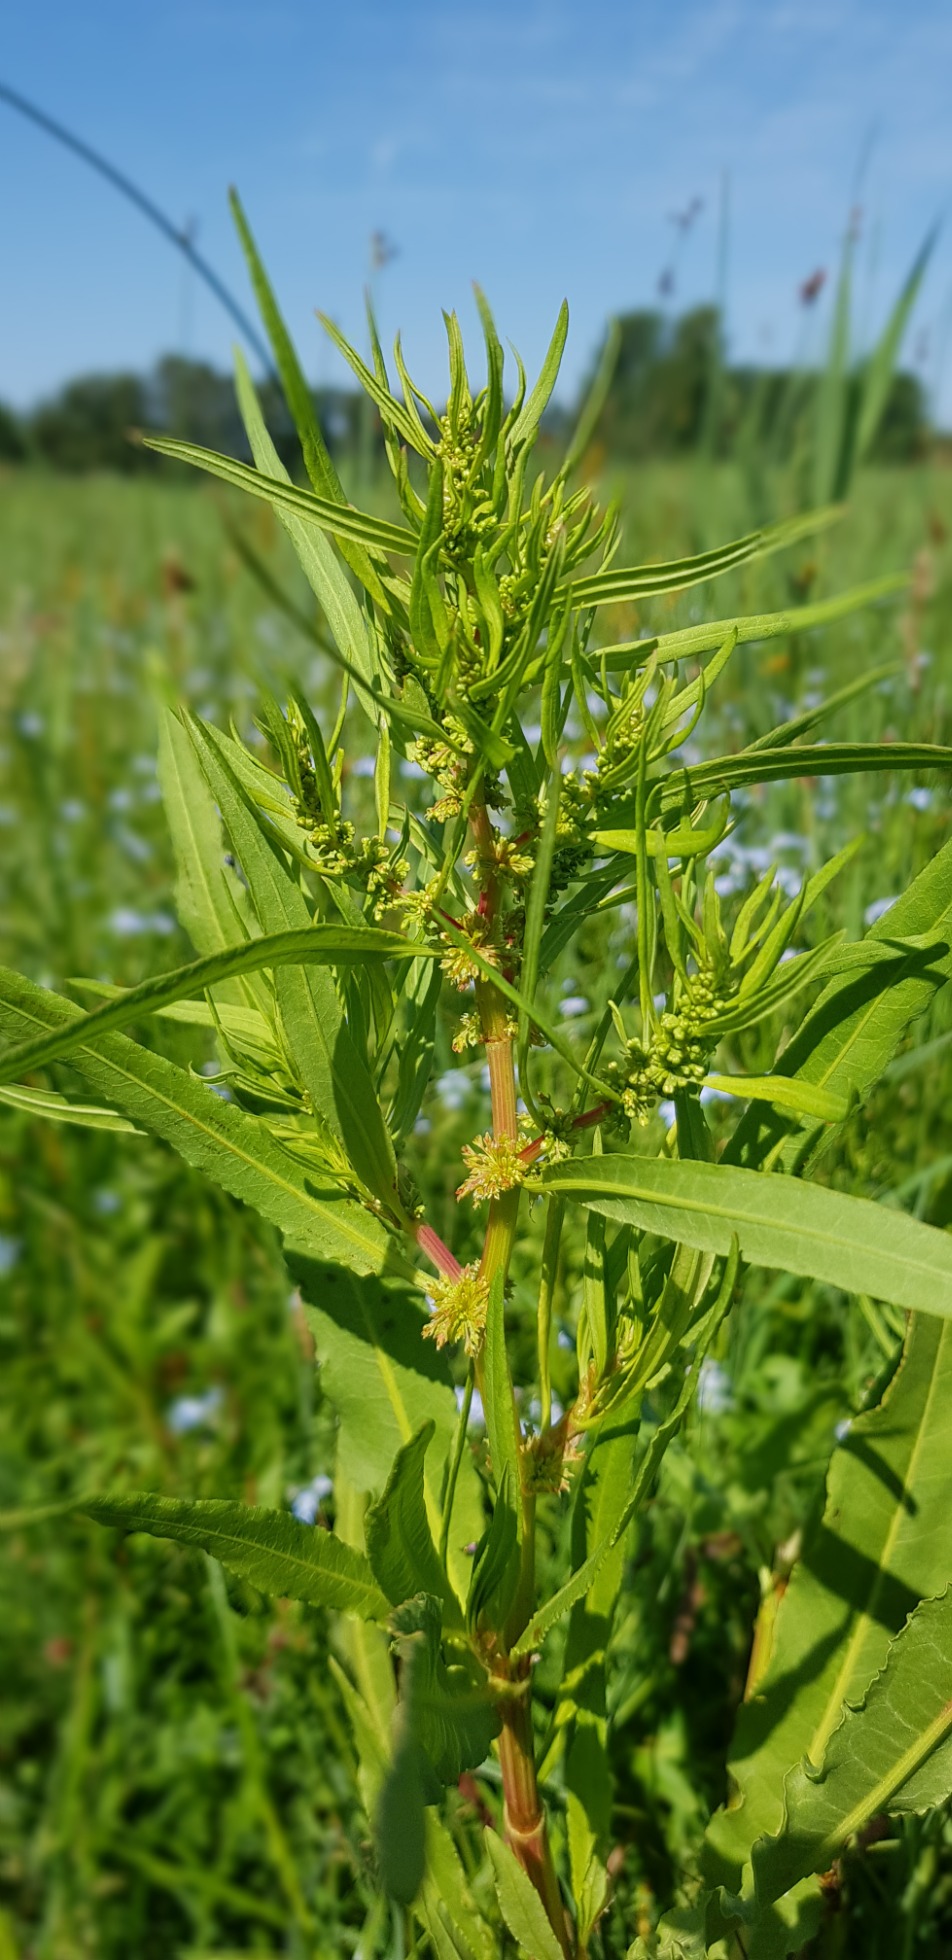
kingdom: Plantae
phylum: Tracheophyta
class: Magnoliopsida
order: Caryophyllales
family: Polygonaceae
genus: Rumex
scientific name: Rumex maritimus
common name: Strand-skræppe
